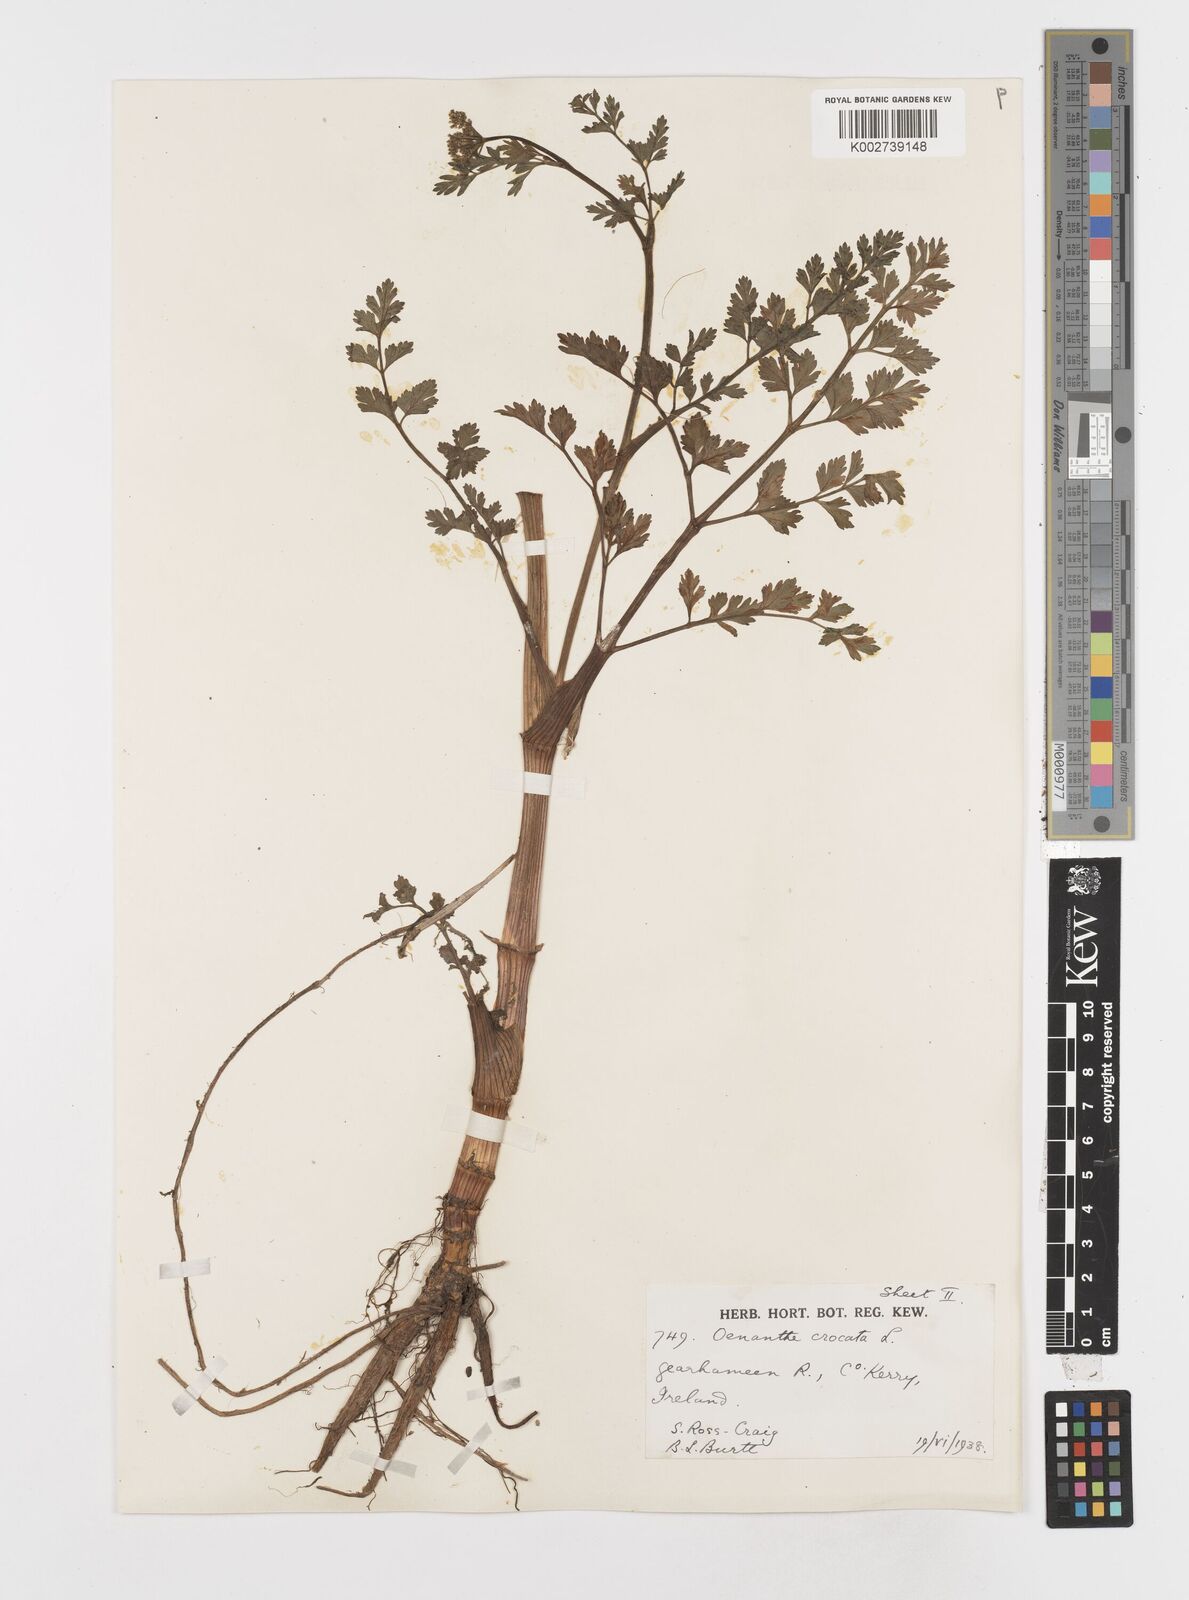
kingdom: Plantae
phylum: Tracheophyta
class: Magnoliopsida
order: Apiales
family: Apiaceae
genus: Oenanthe
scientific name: Oenanthe crocata
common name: Hemlock water-dropwort
